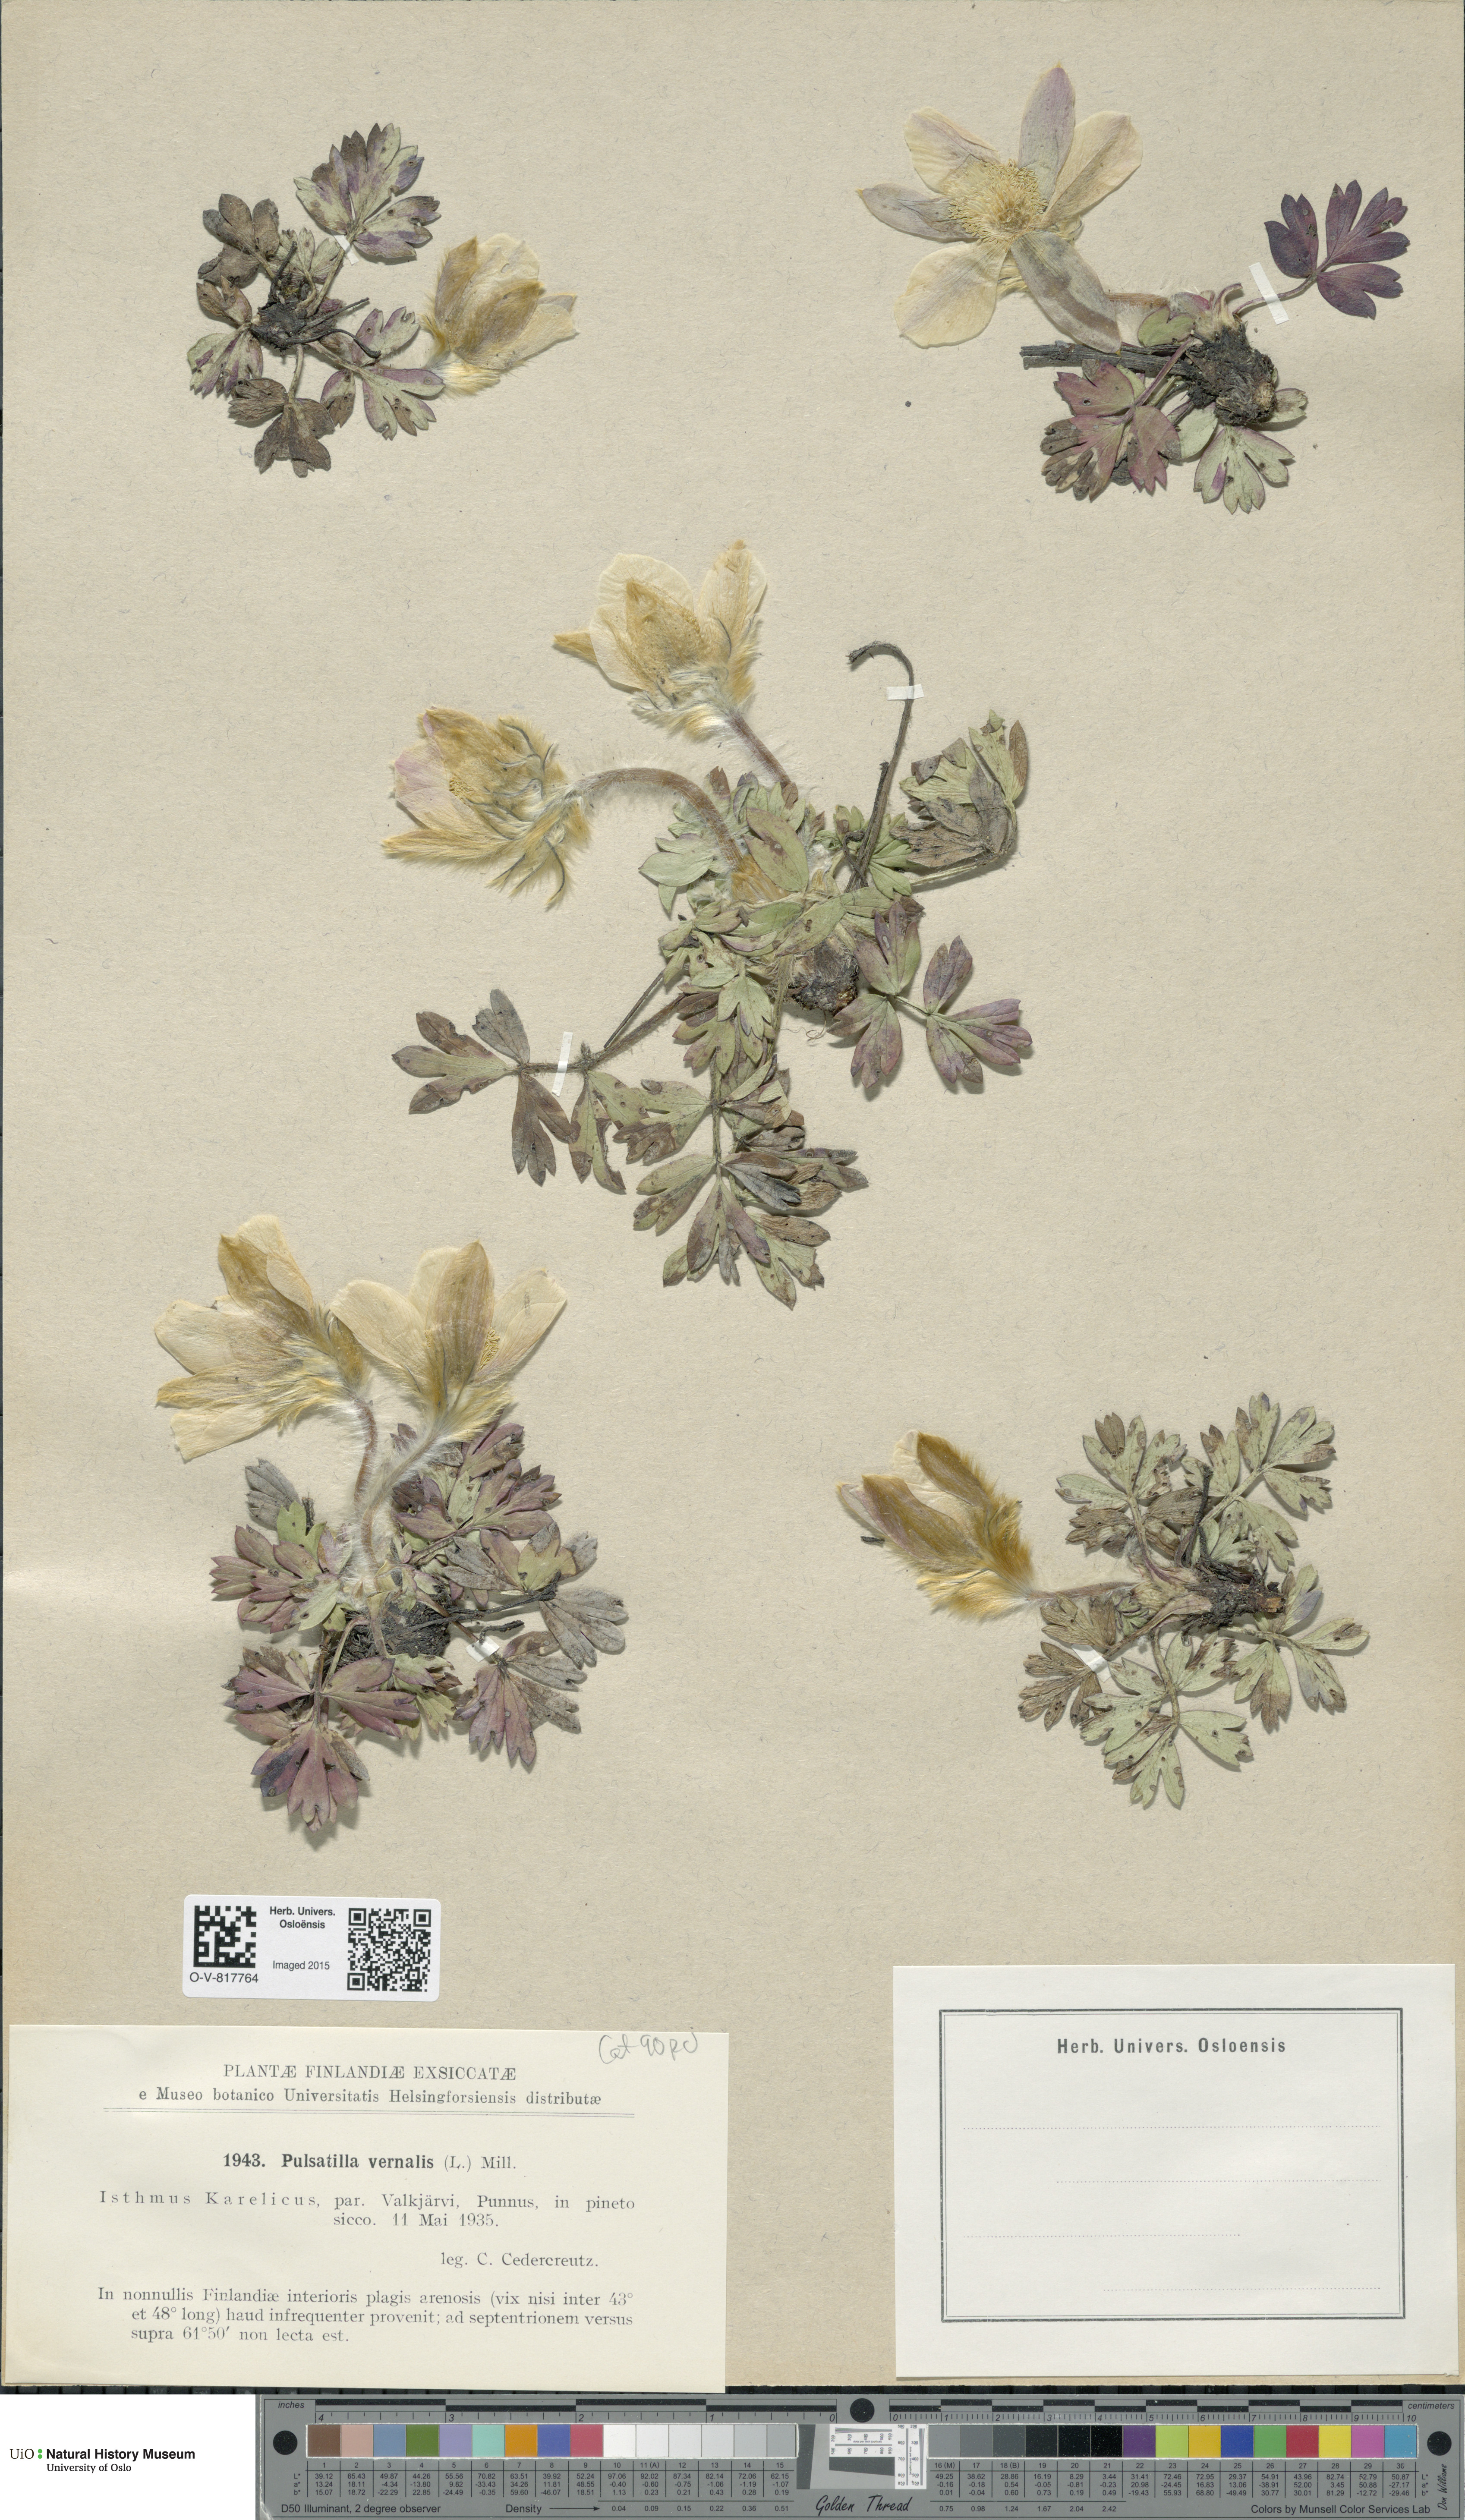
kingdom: Plantae
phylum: Tracheophyta
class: Magnoliopsida
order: Ranunculales
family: Ranunculaceae
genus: Pulsatilla
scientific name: Pulsatilla vernalis
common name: Spring pasque flower
